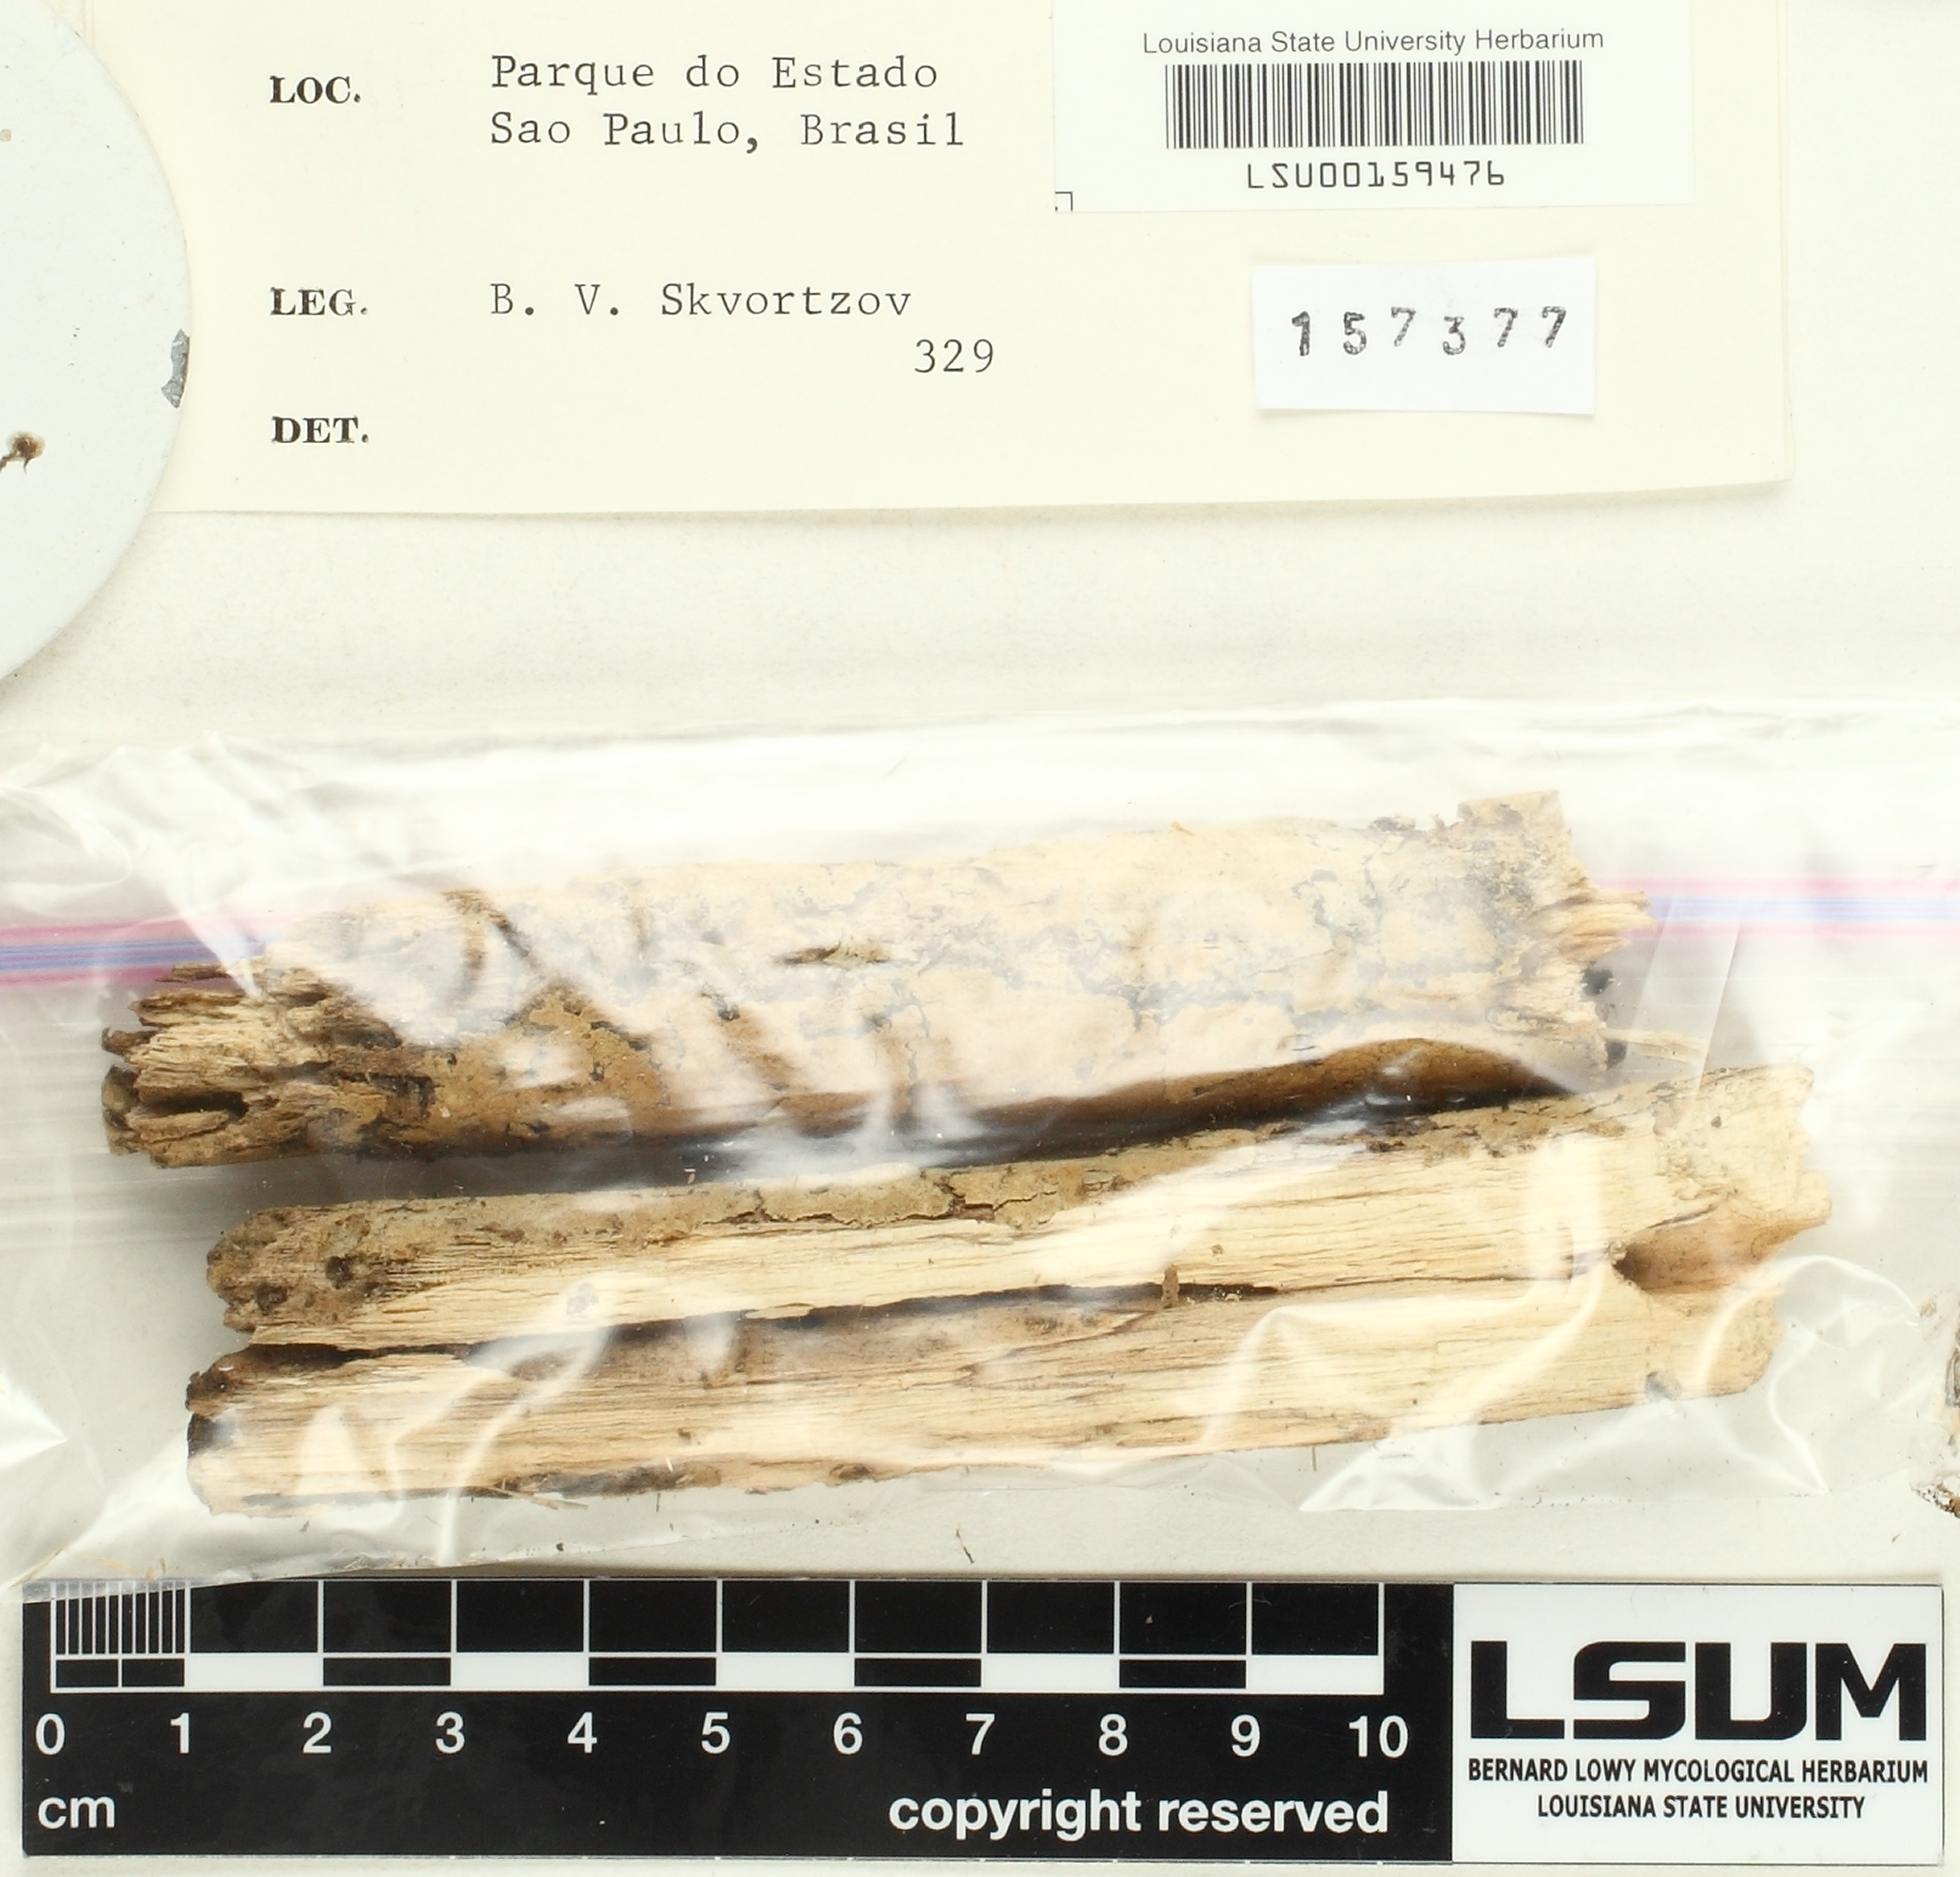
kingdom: Fungi
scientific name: Fungi
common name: Fungi
